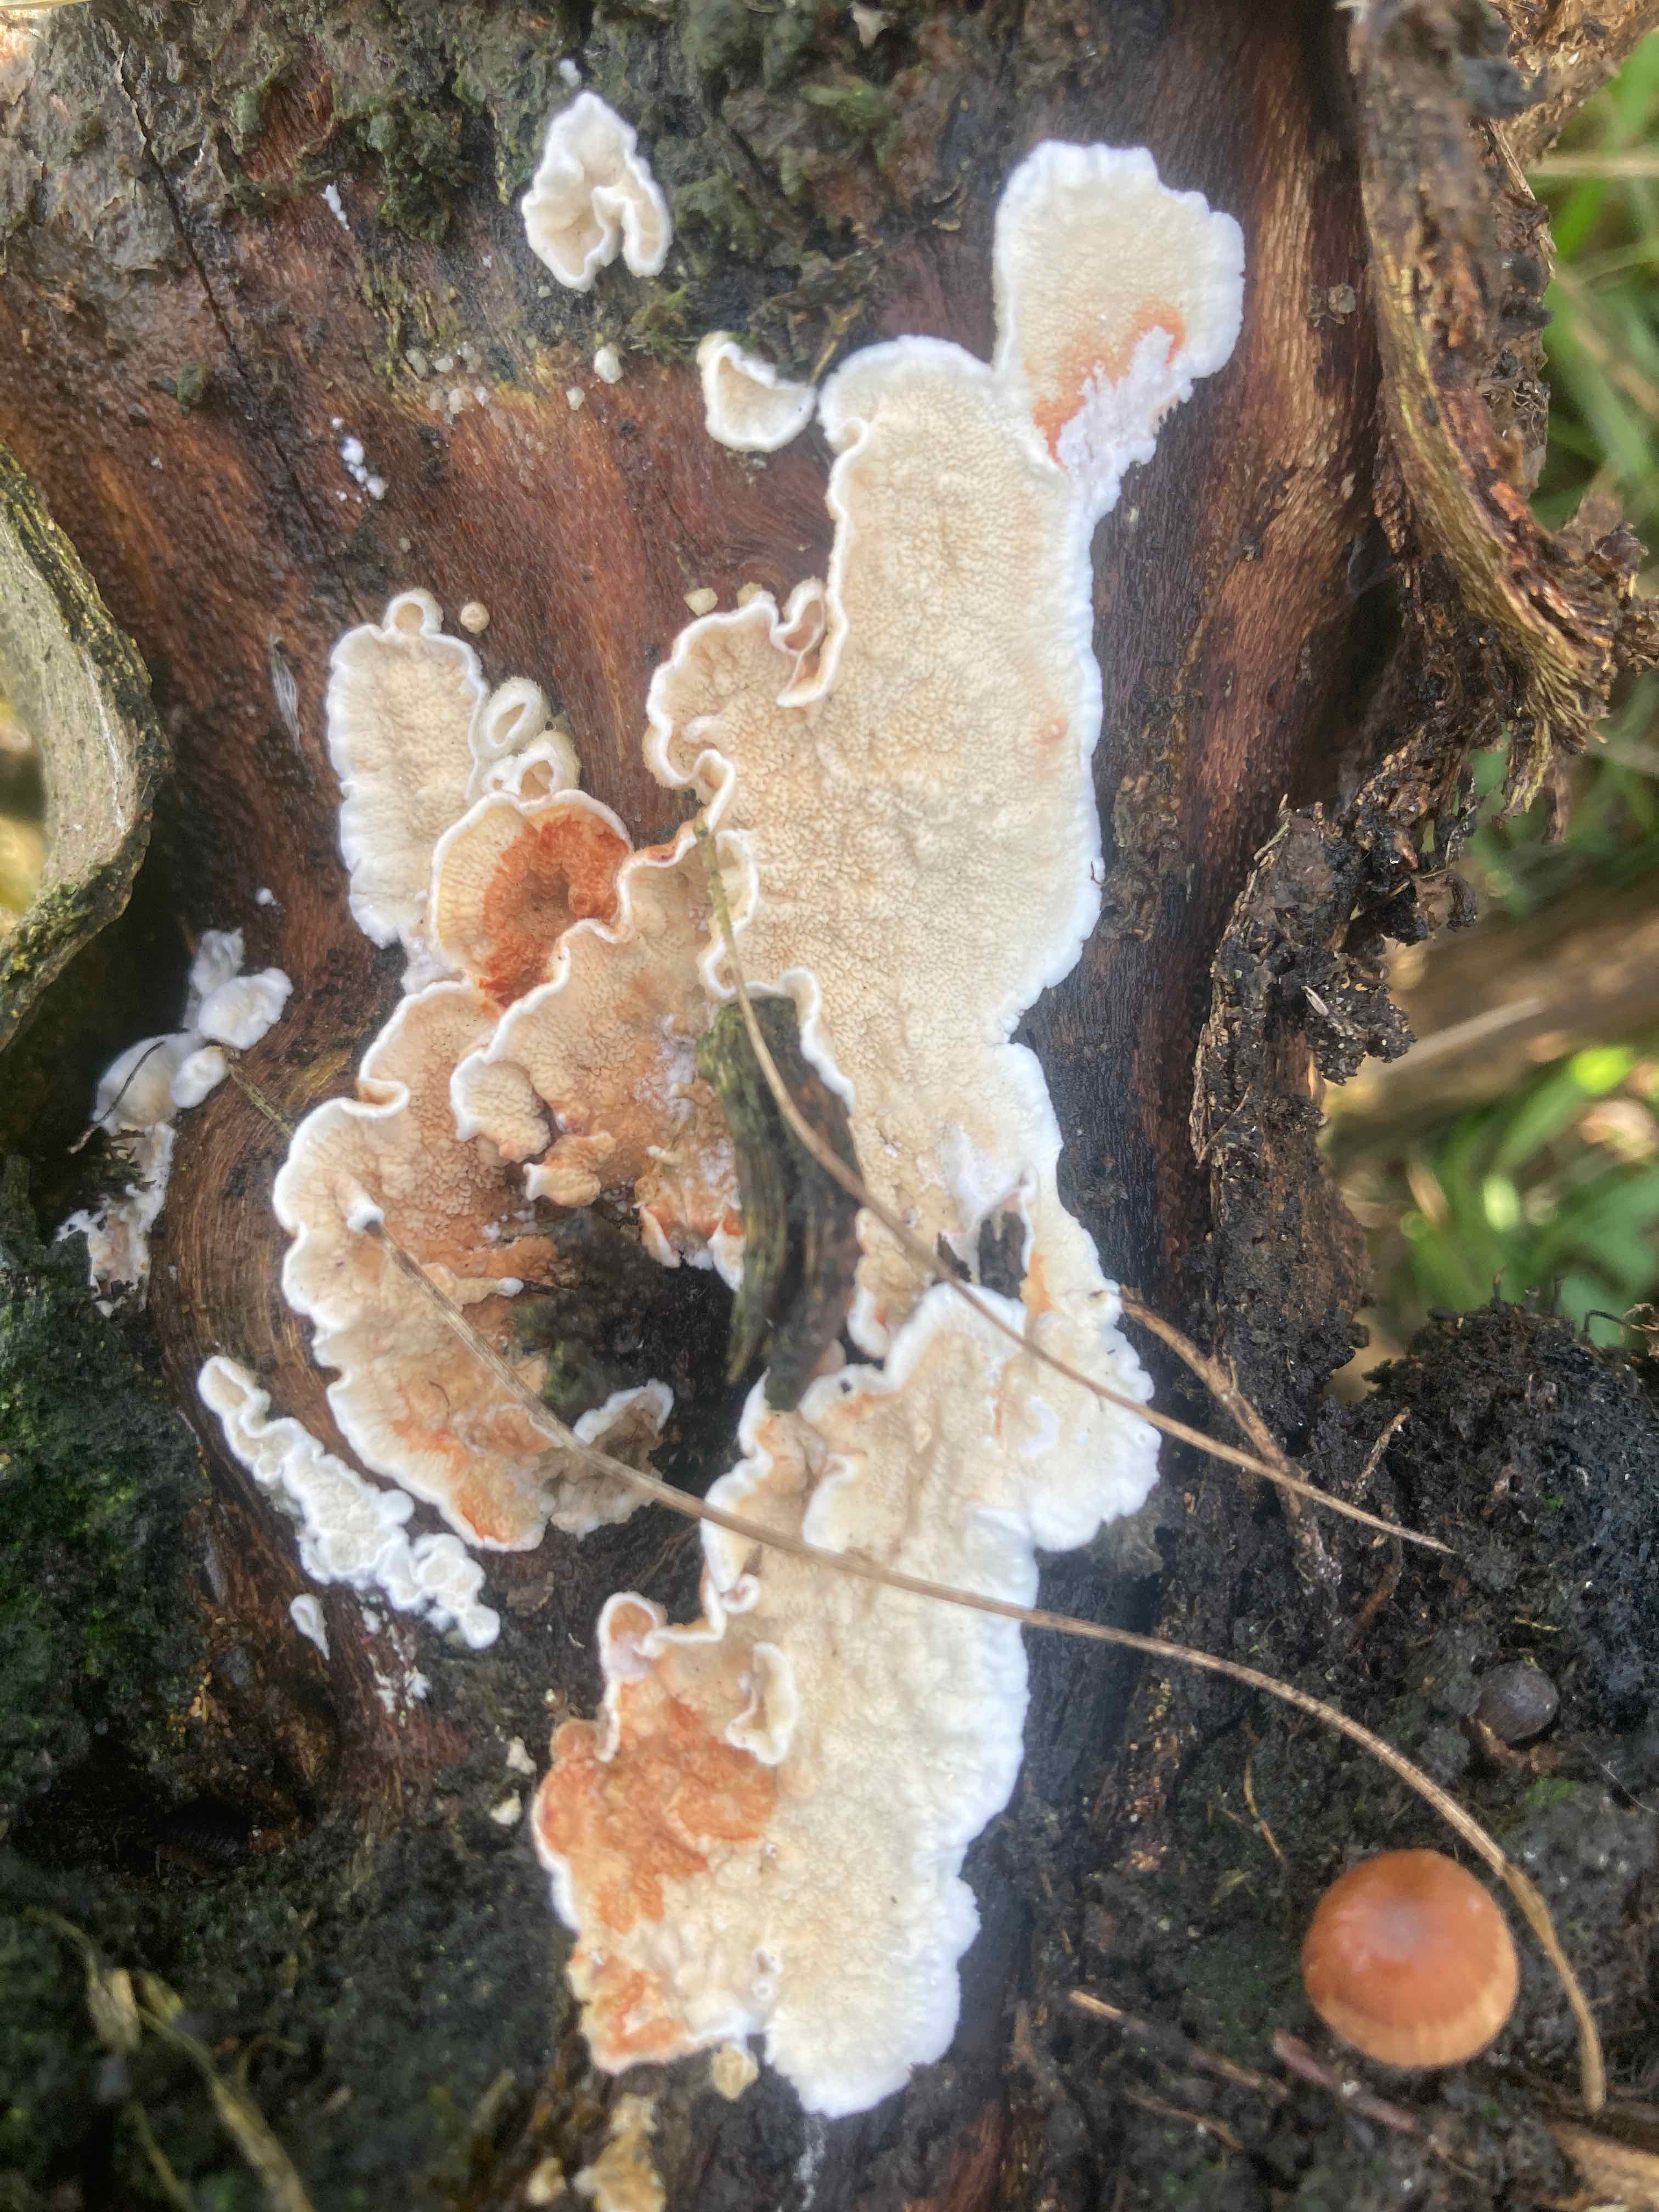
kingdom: Fungi
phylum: Basidiomycota
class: Agaricomycetes
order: Polyporales
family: Irpicaceae
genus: Byssomerulius
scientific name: Byssomerulius corium
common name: læder-åresvamp
